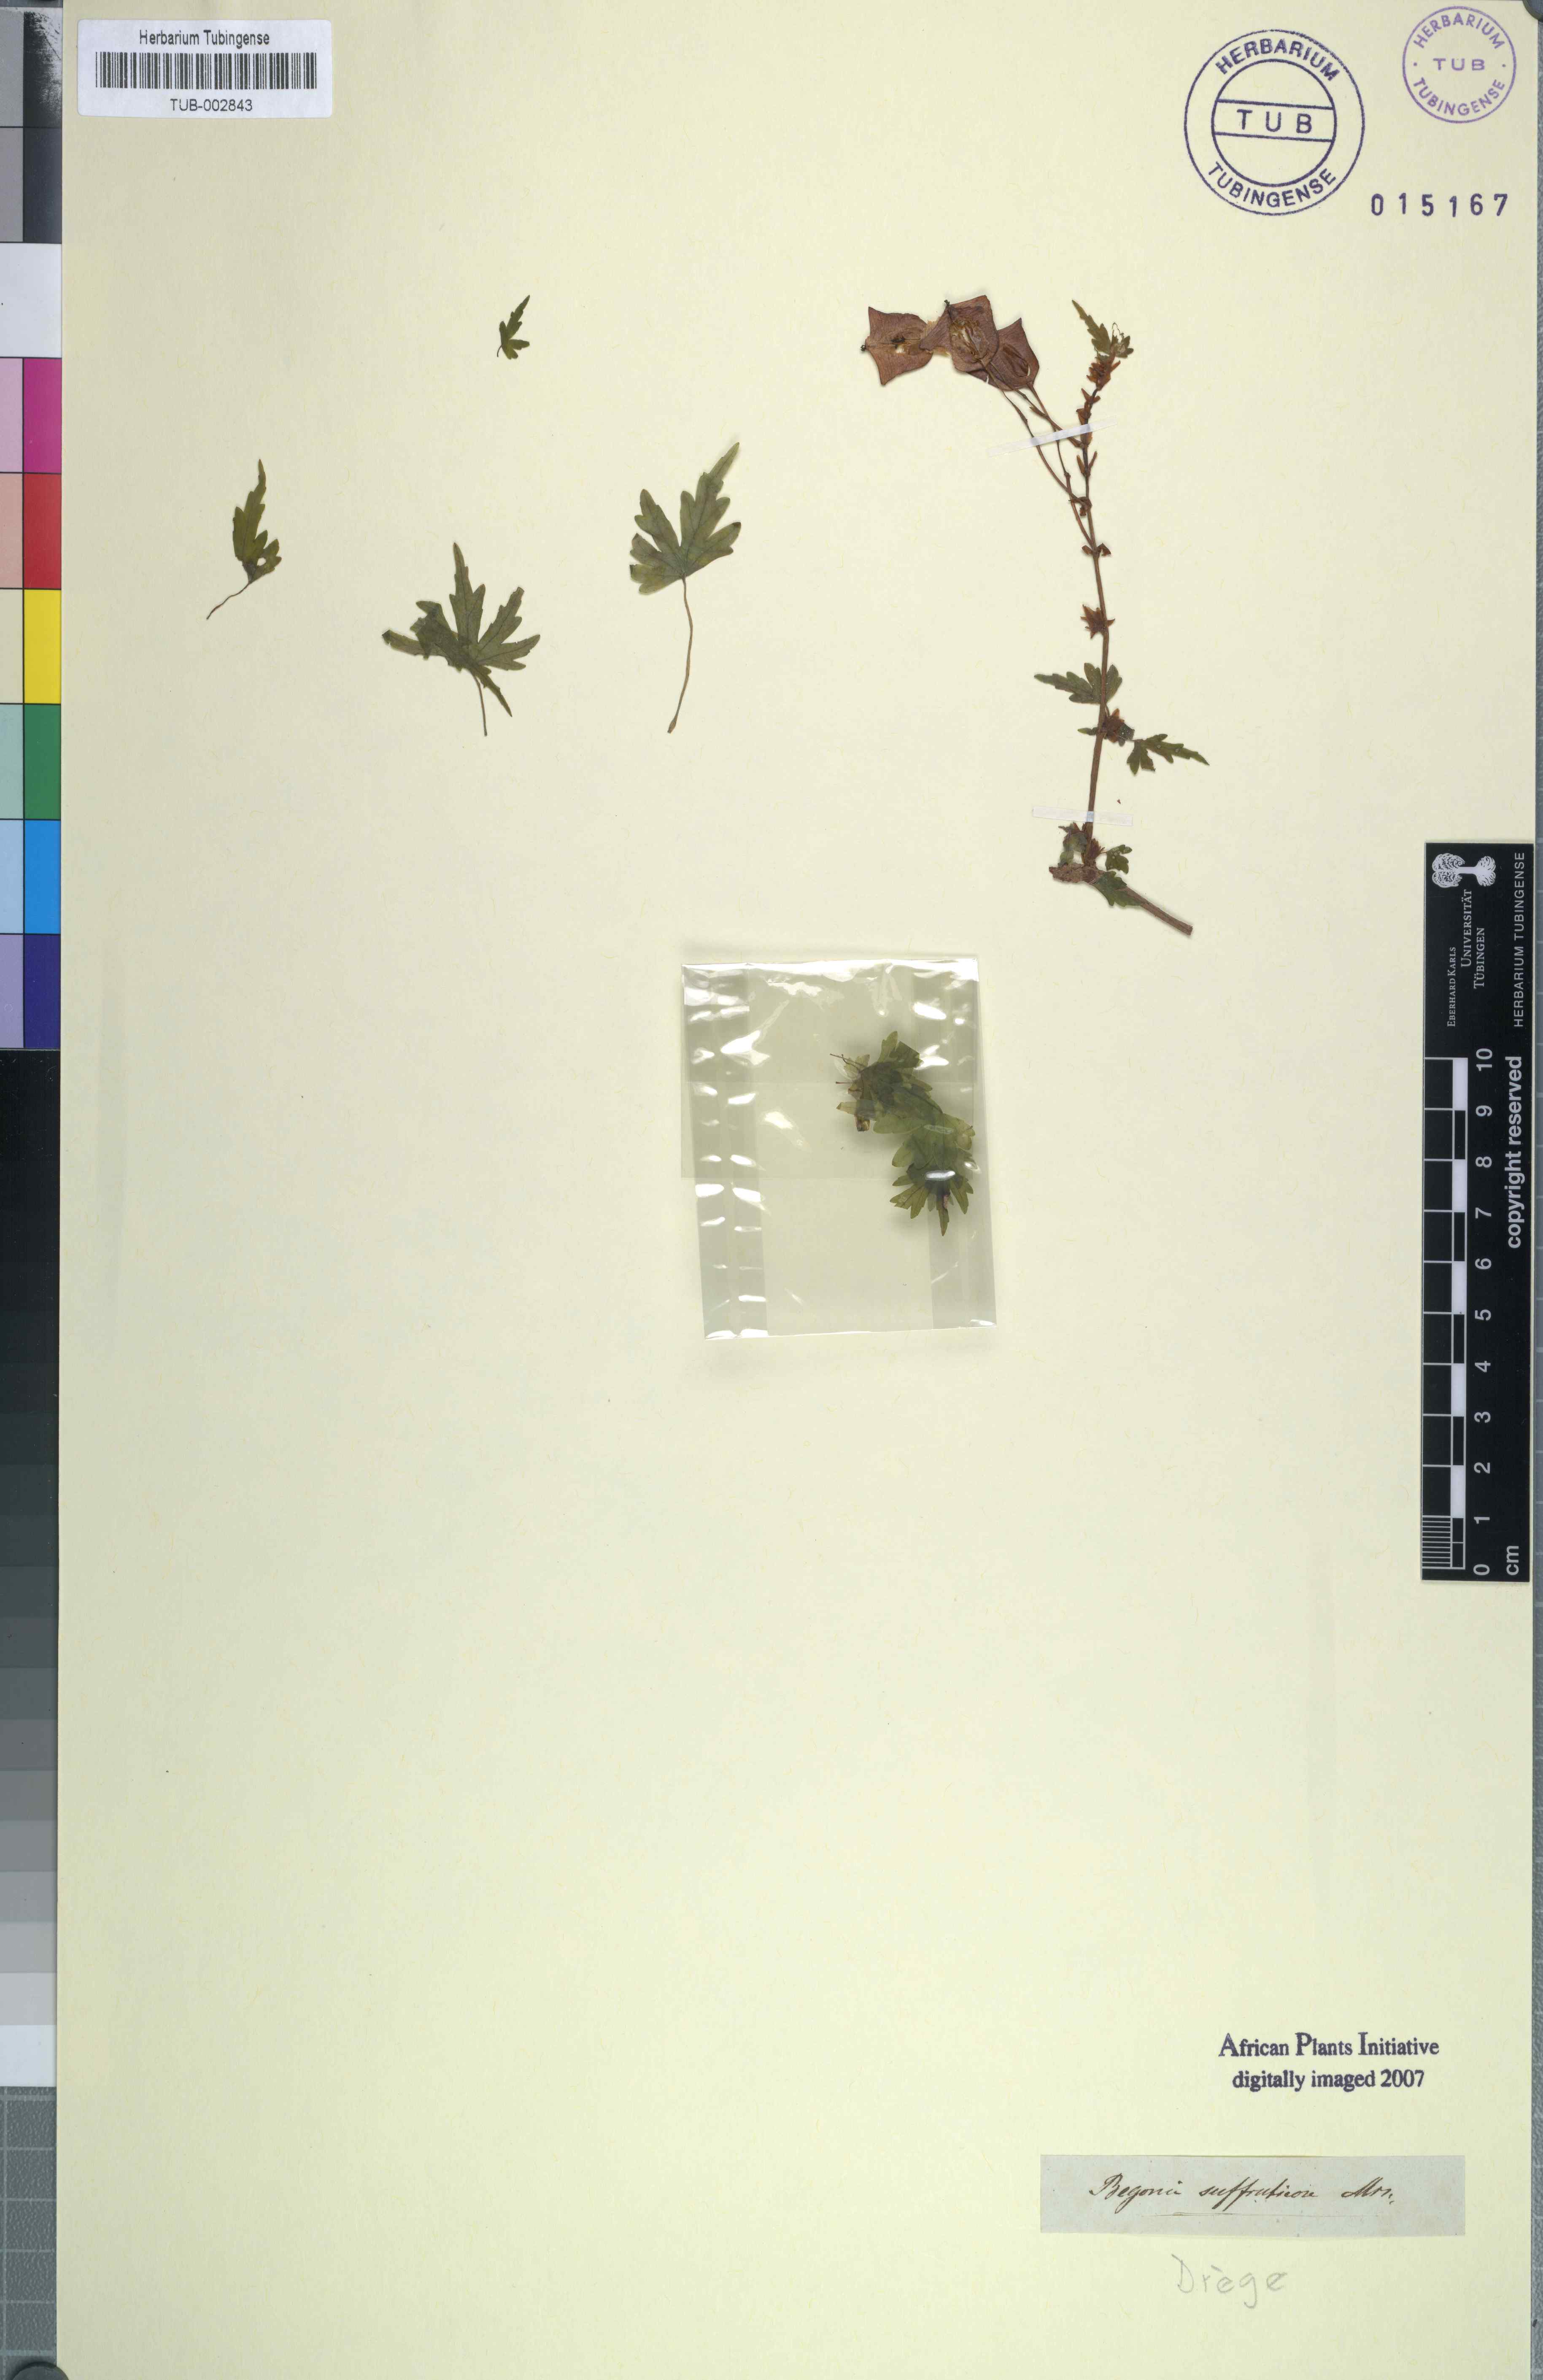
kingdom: Plantae
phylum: Tracheophyta
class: Magnoliopsida
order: Cucurbitales
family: Begoniaceae
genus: Begonia
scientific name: Begonia dregei
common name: Grape-leaf begonia
